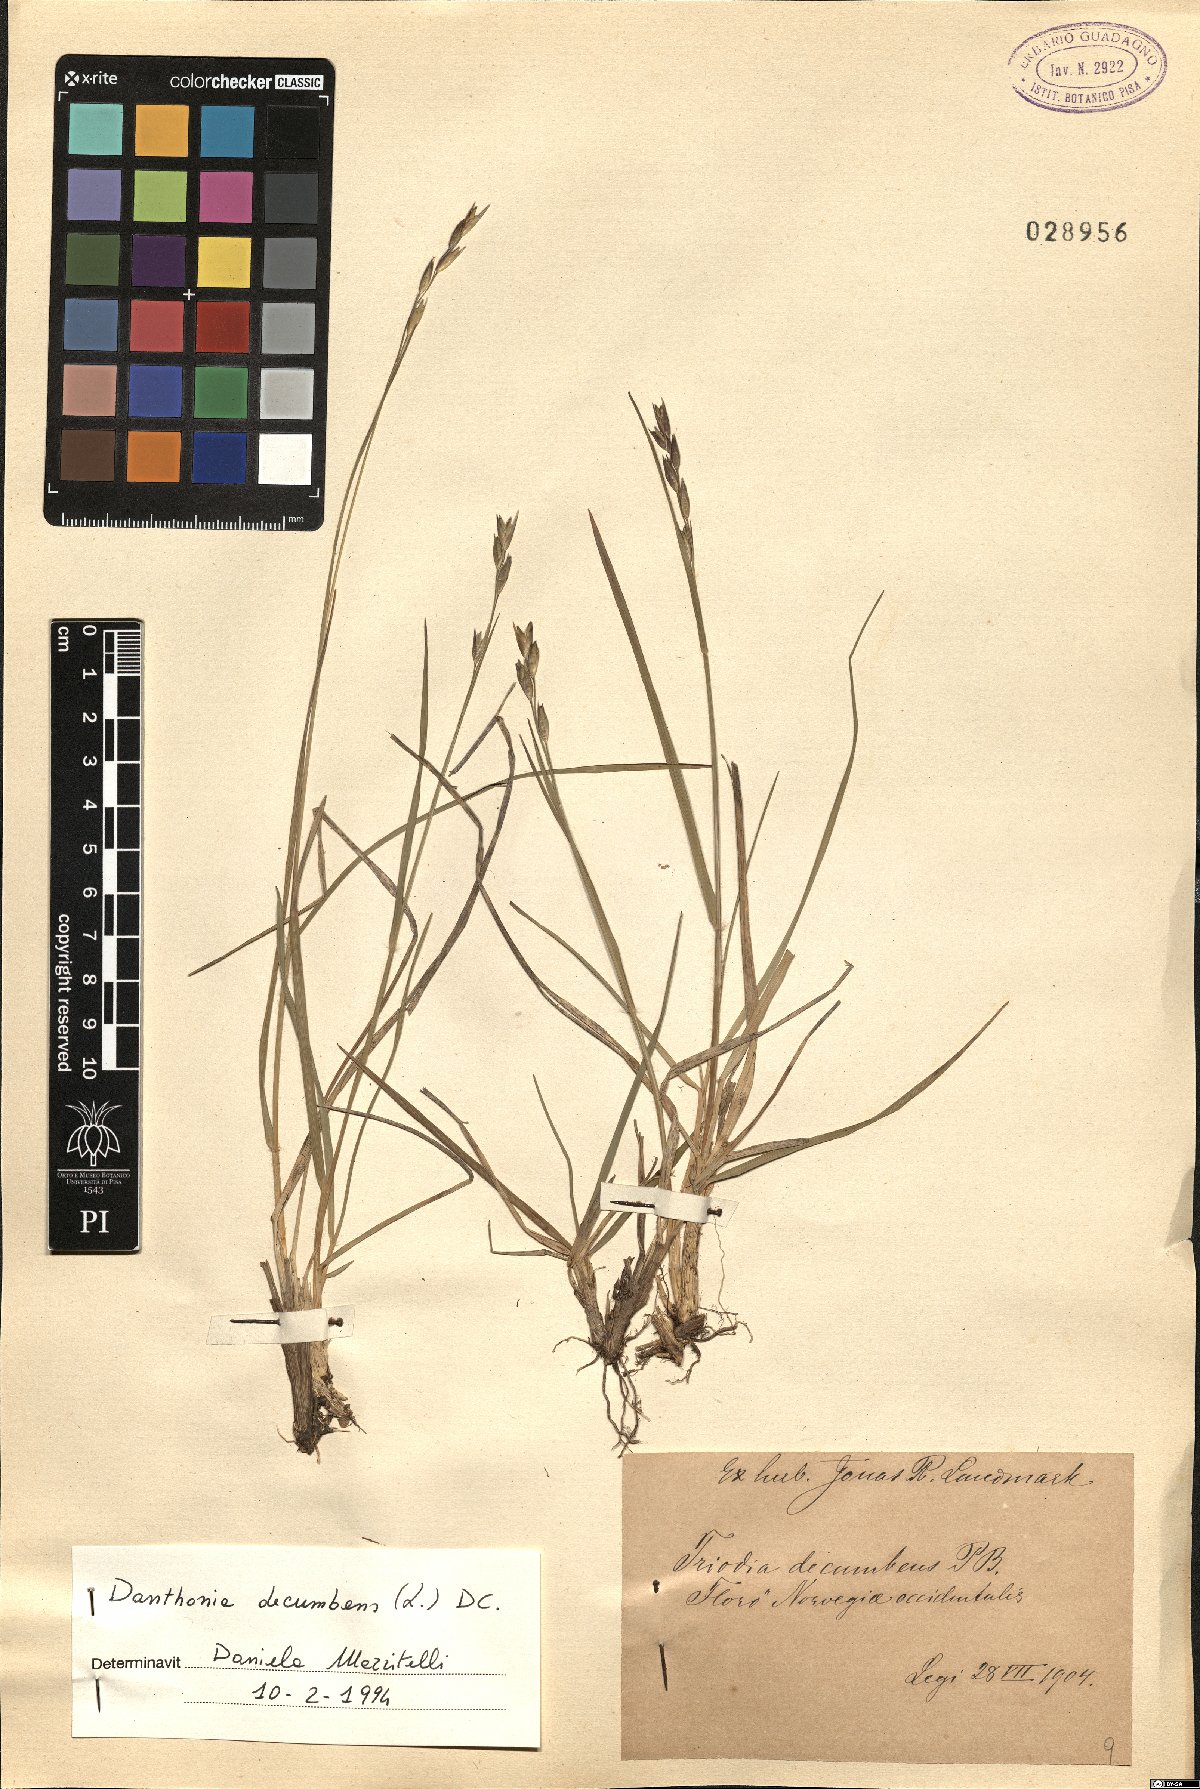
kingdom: Plantae
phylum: Tracheophyta
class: Liliopsida
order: Poales
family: Poaceae
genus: Danthonia
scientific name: Danthonia decumbens
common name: Common heathgrass
